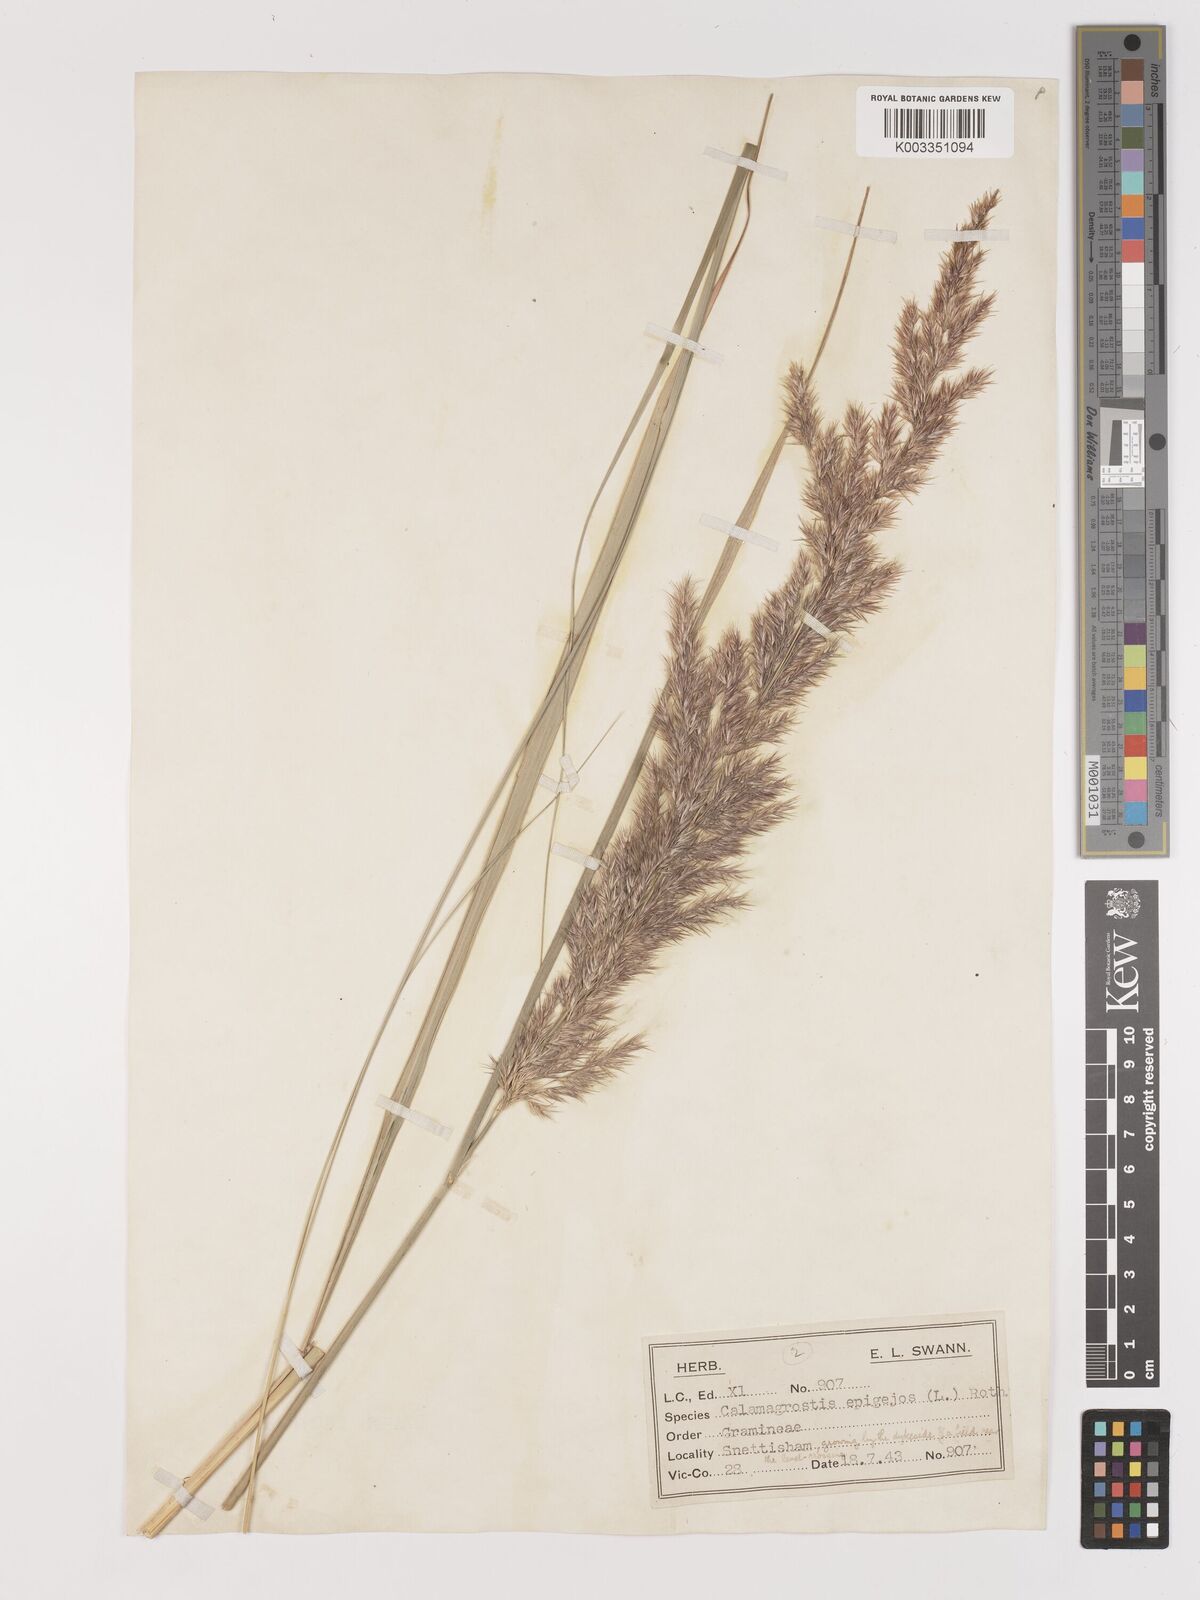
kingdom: Plantae
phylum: Tracheophyta
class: Liliopsida
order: Poales
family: Poaceae
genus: Calamagrostis
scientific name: Calamagrostis
